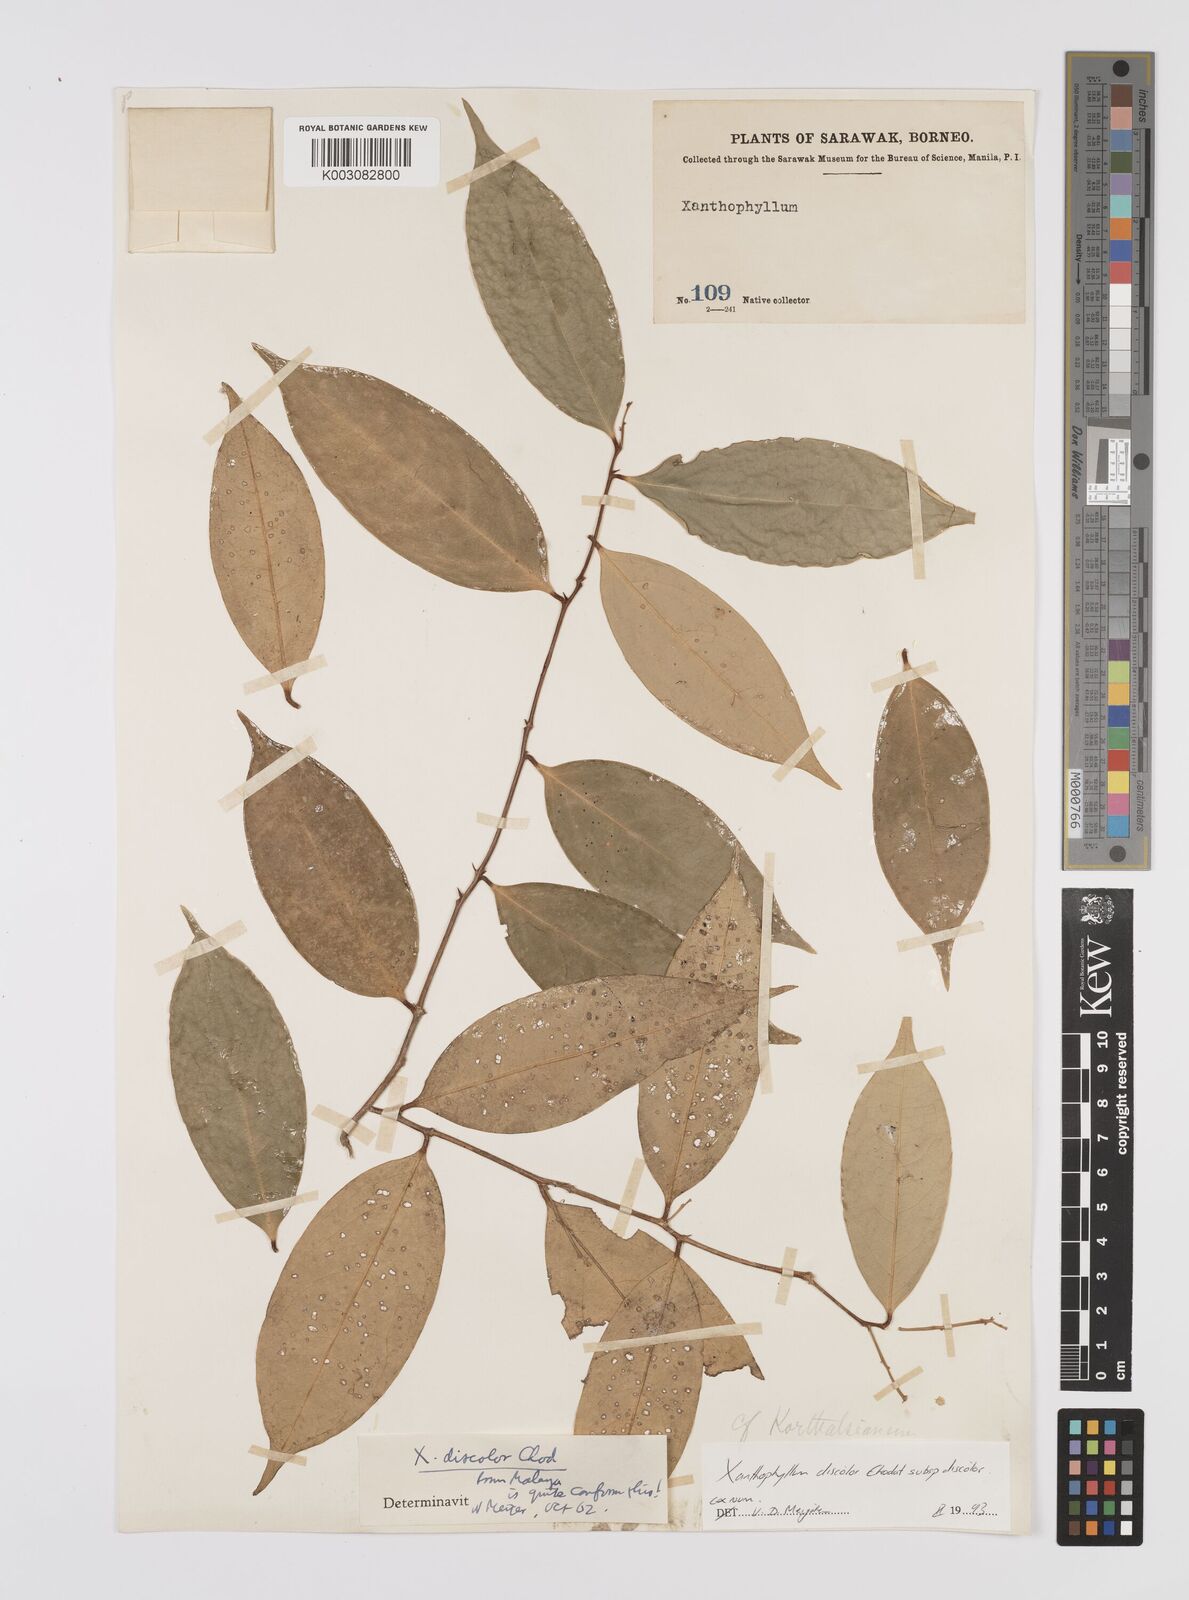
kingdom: Plantae
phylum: Tracheophyta
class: Magnoliopsida
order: Fabales
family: Polygalaceae
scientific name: Polygalaceae
